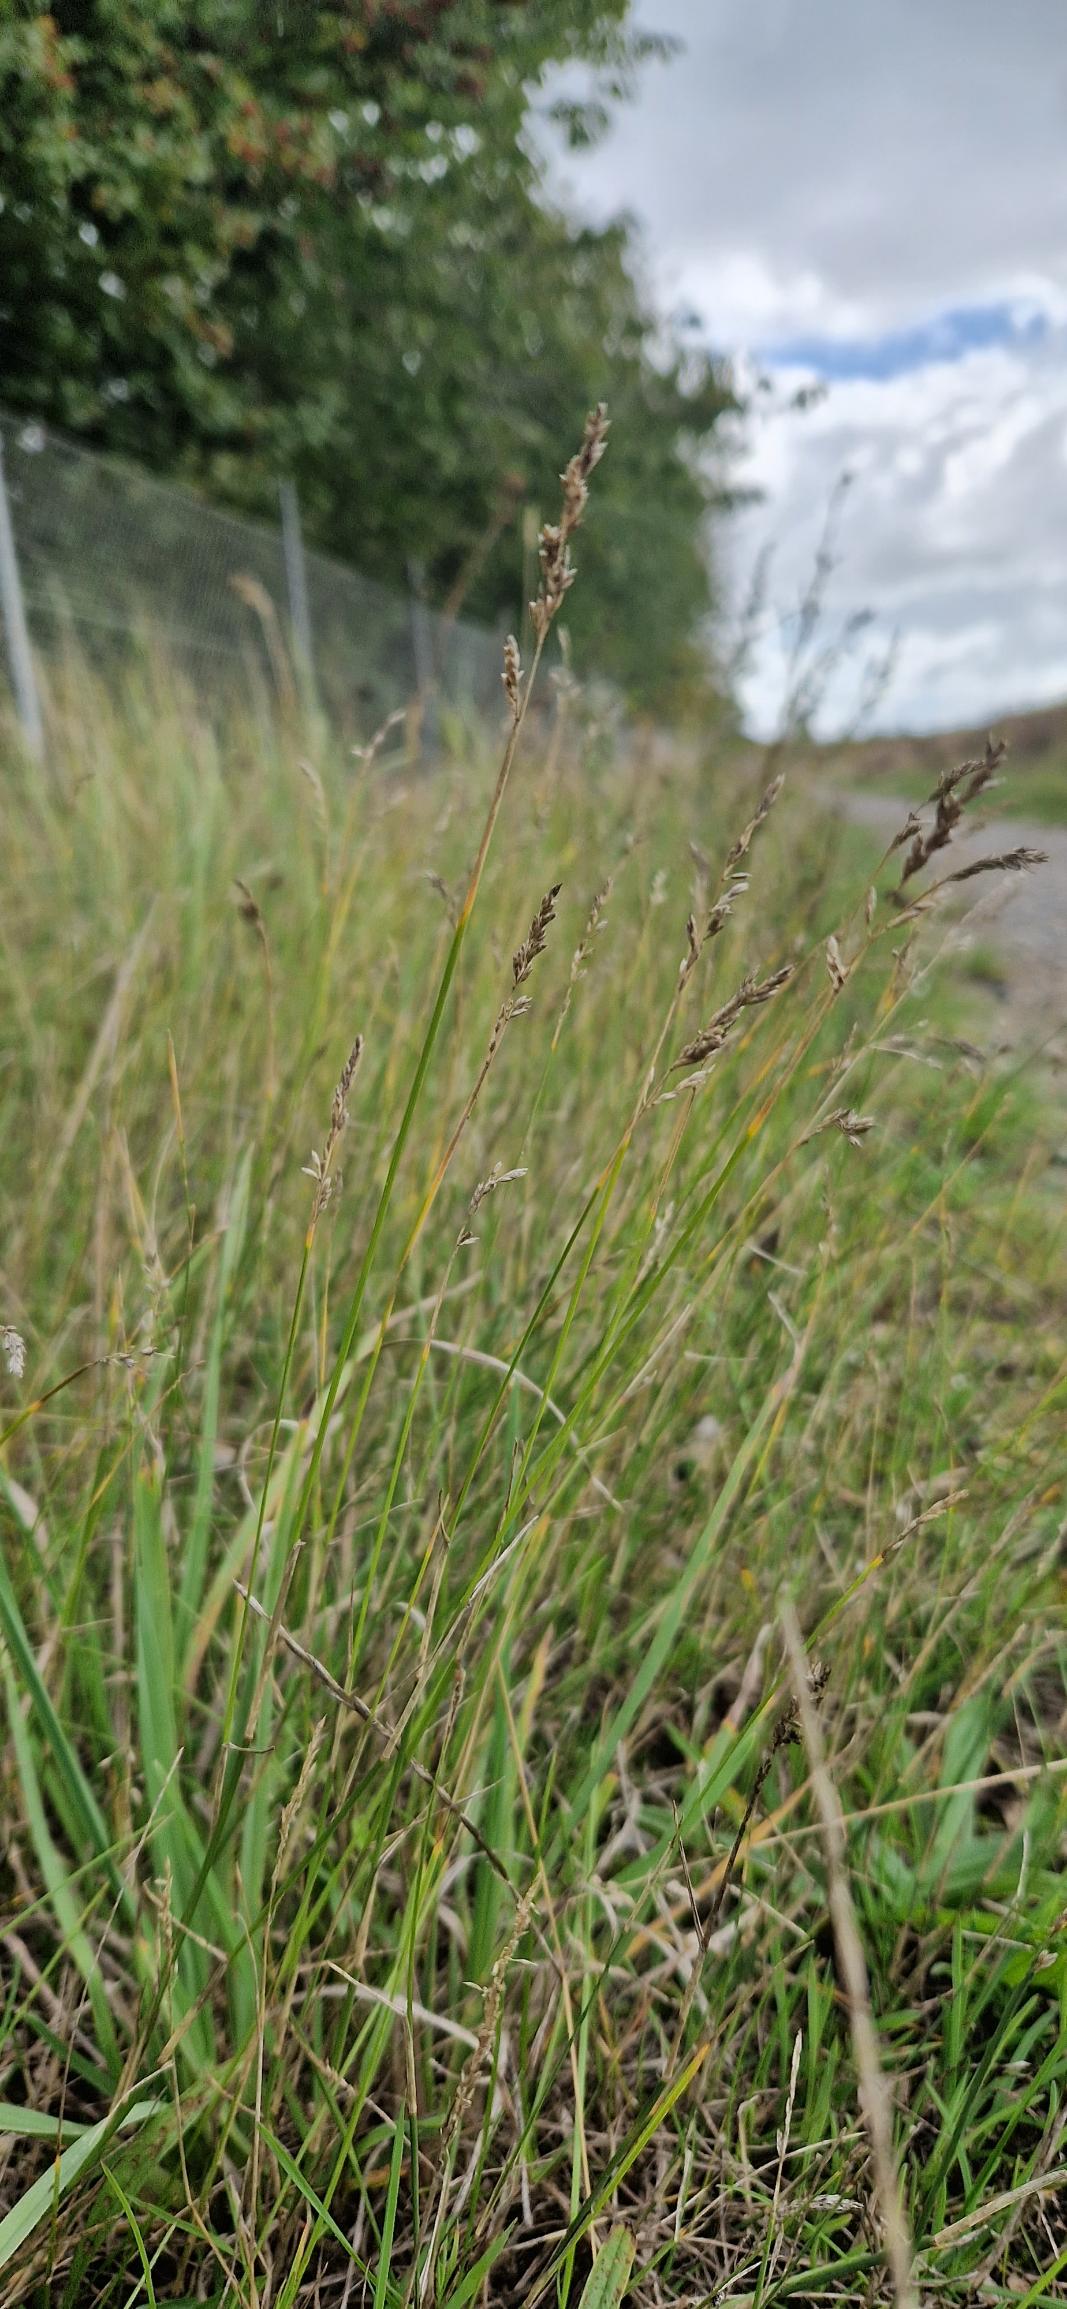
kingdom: Plantae
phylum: Tracheophyta
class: Liliopsida
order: Poales
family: Poaceae
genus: Poa
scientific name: Poa compressa
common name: Fladstrået rapgræs
